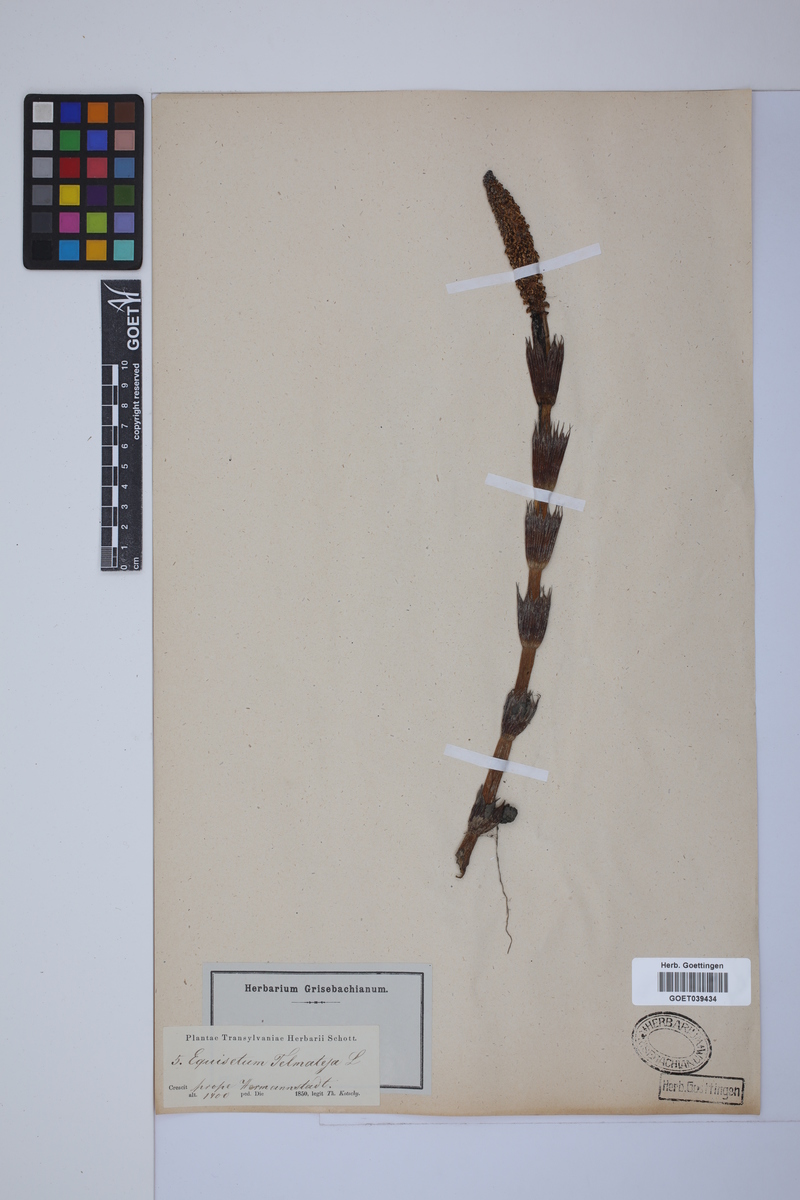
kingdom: Plantae
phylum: Tracheophyta
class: Polypodiopsida
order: Equisetales
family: Equisetaceae
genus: Equisetum
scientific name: Equisetum telmateia
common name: Great horsetail
